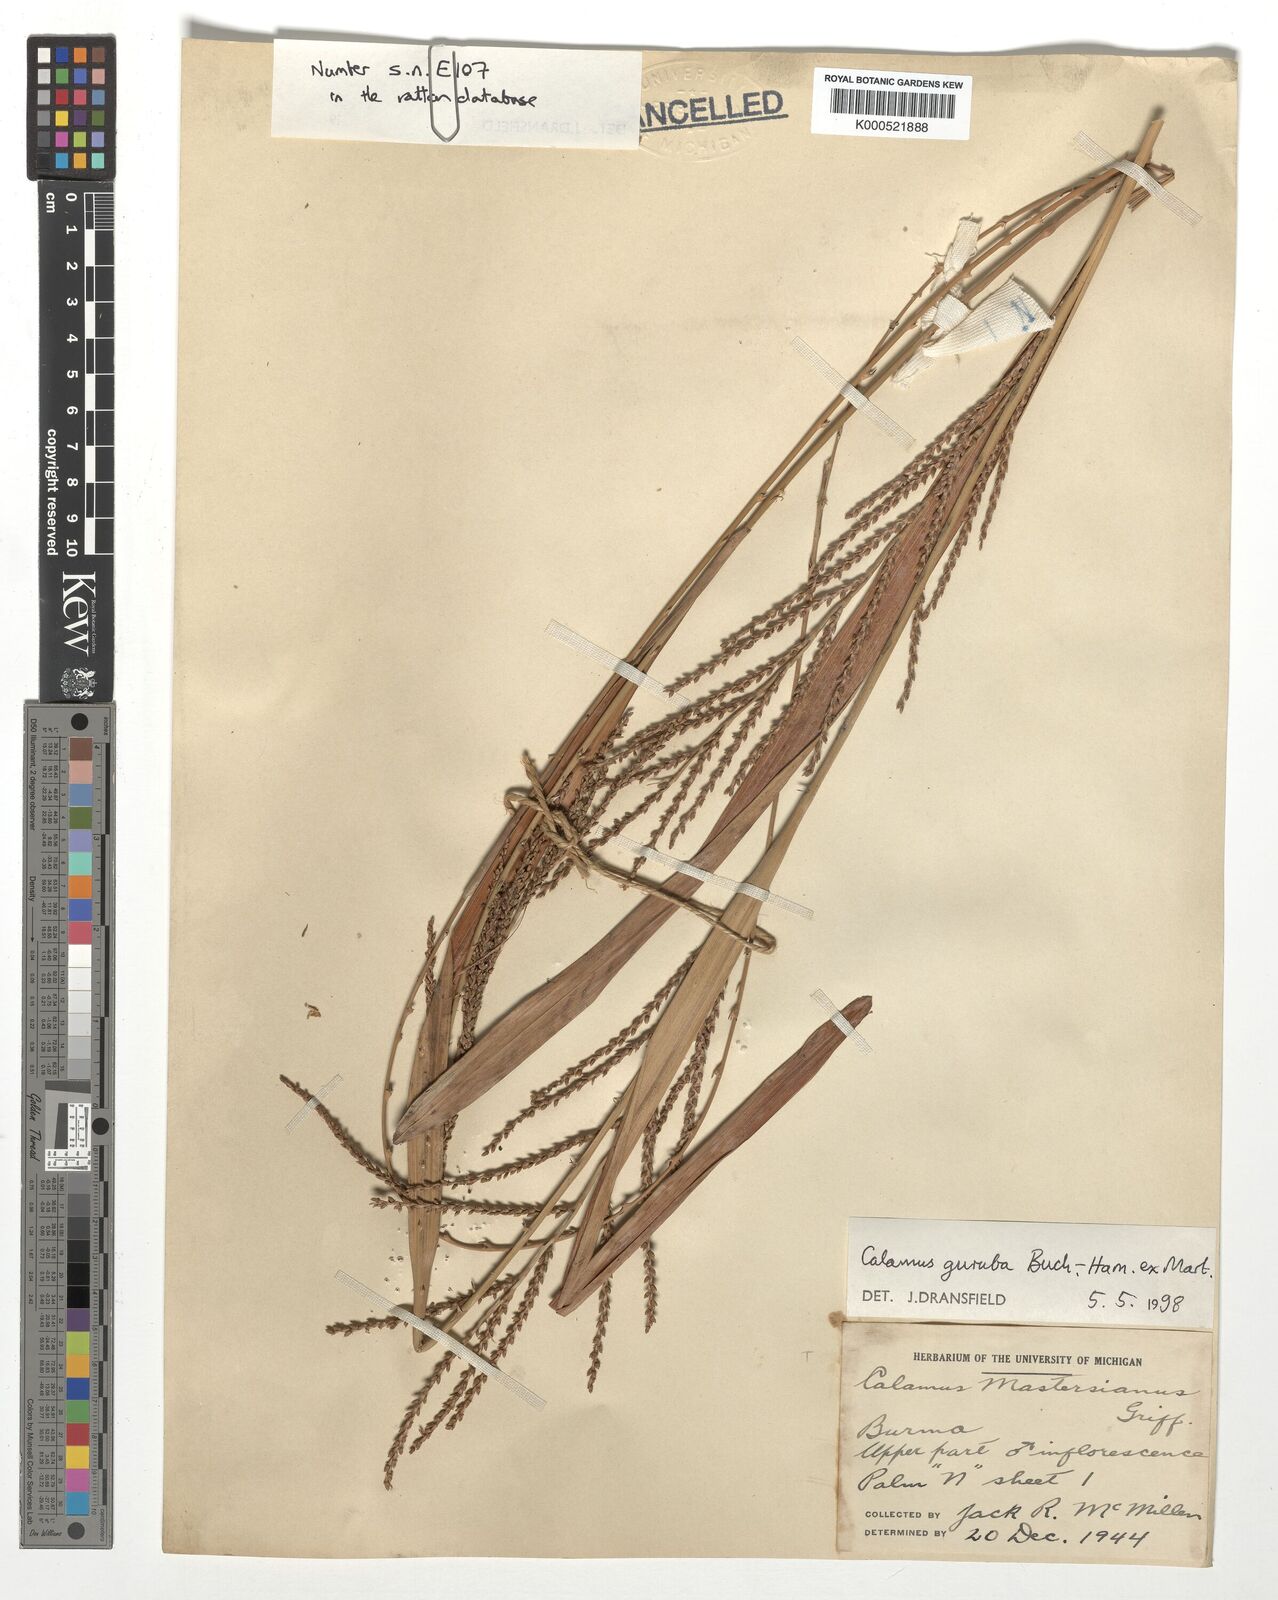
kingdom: Plantae
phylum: Tracheophyta
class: Liliopsida
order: Arecales
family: Arecaceae
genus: Calamus
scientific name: Calamus
